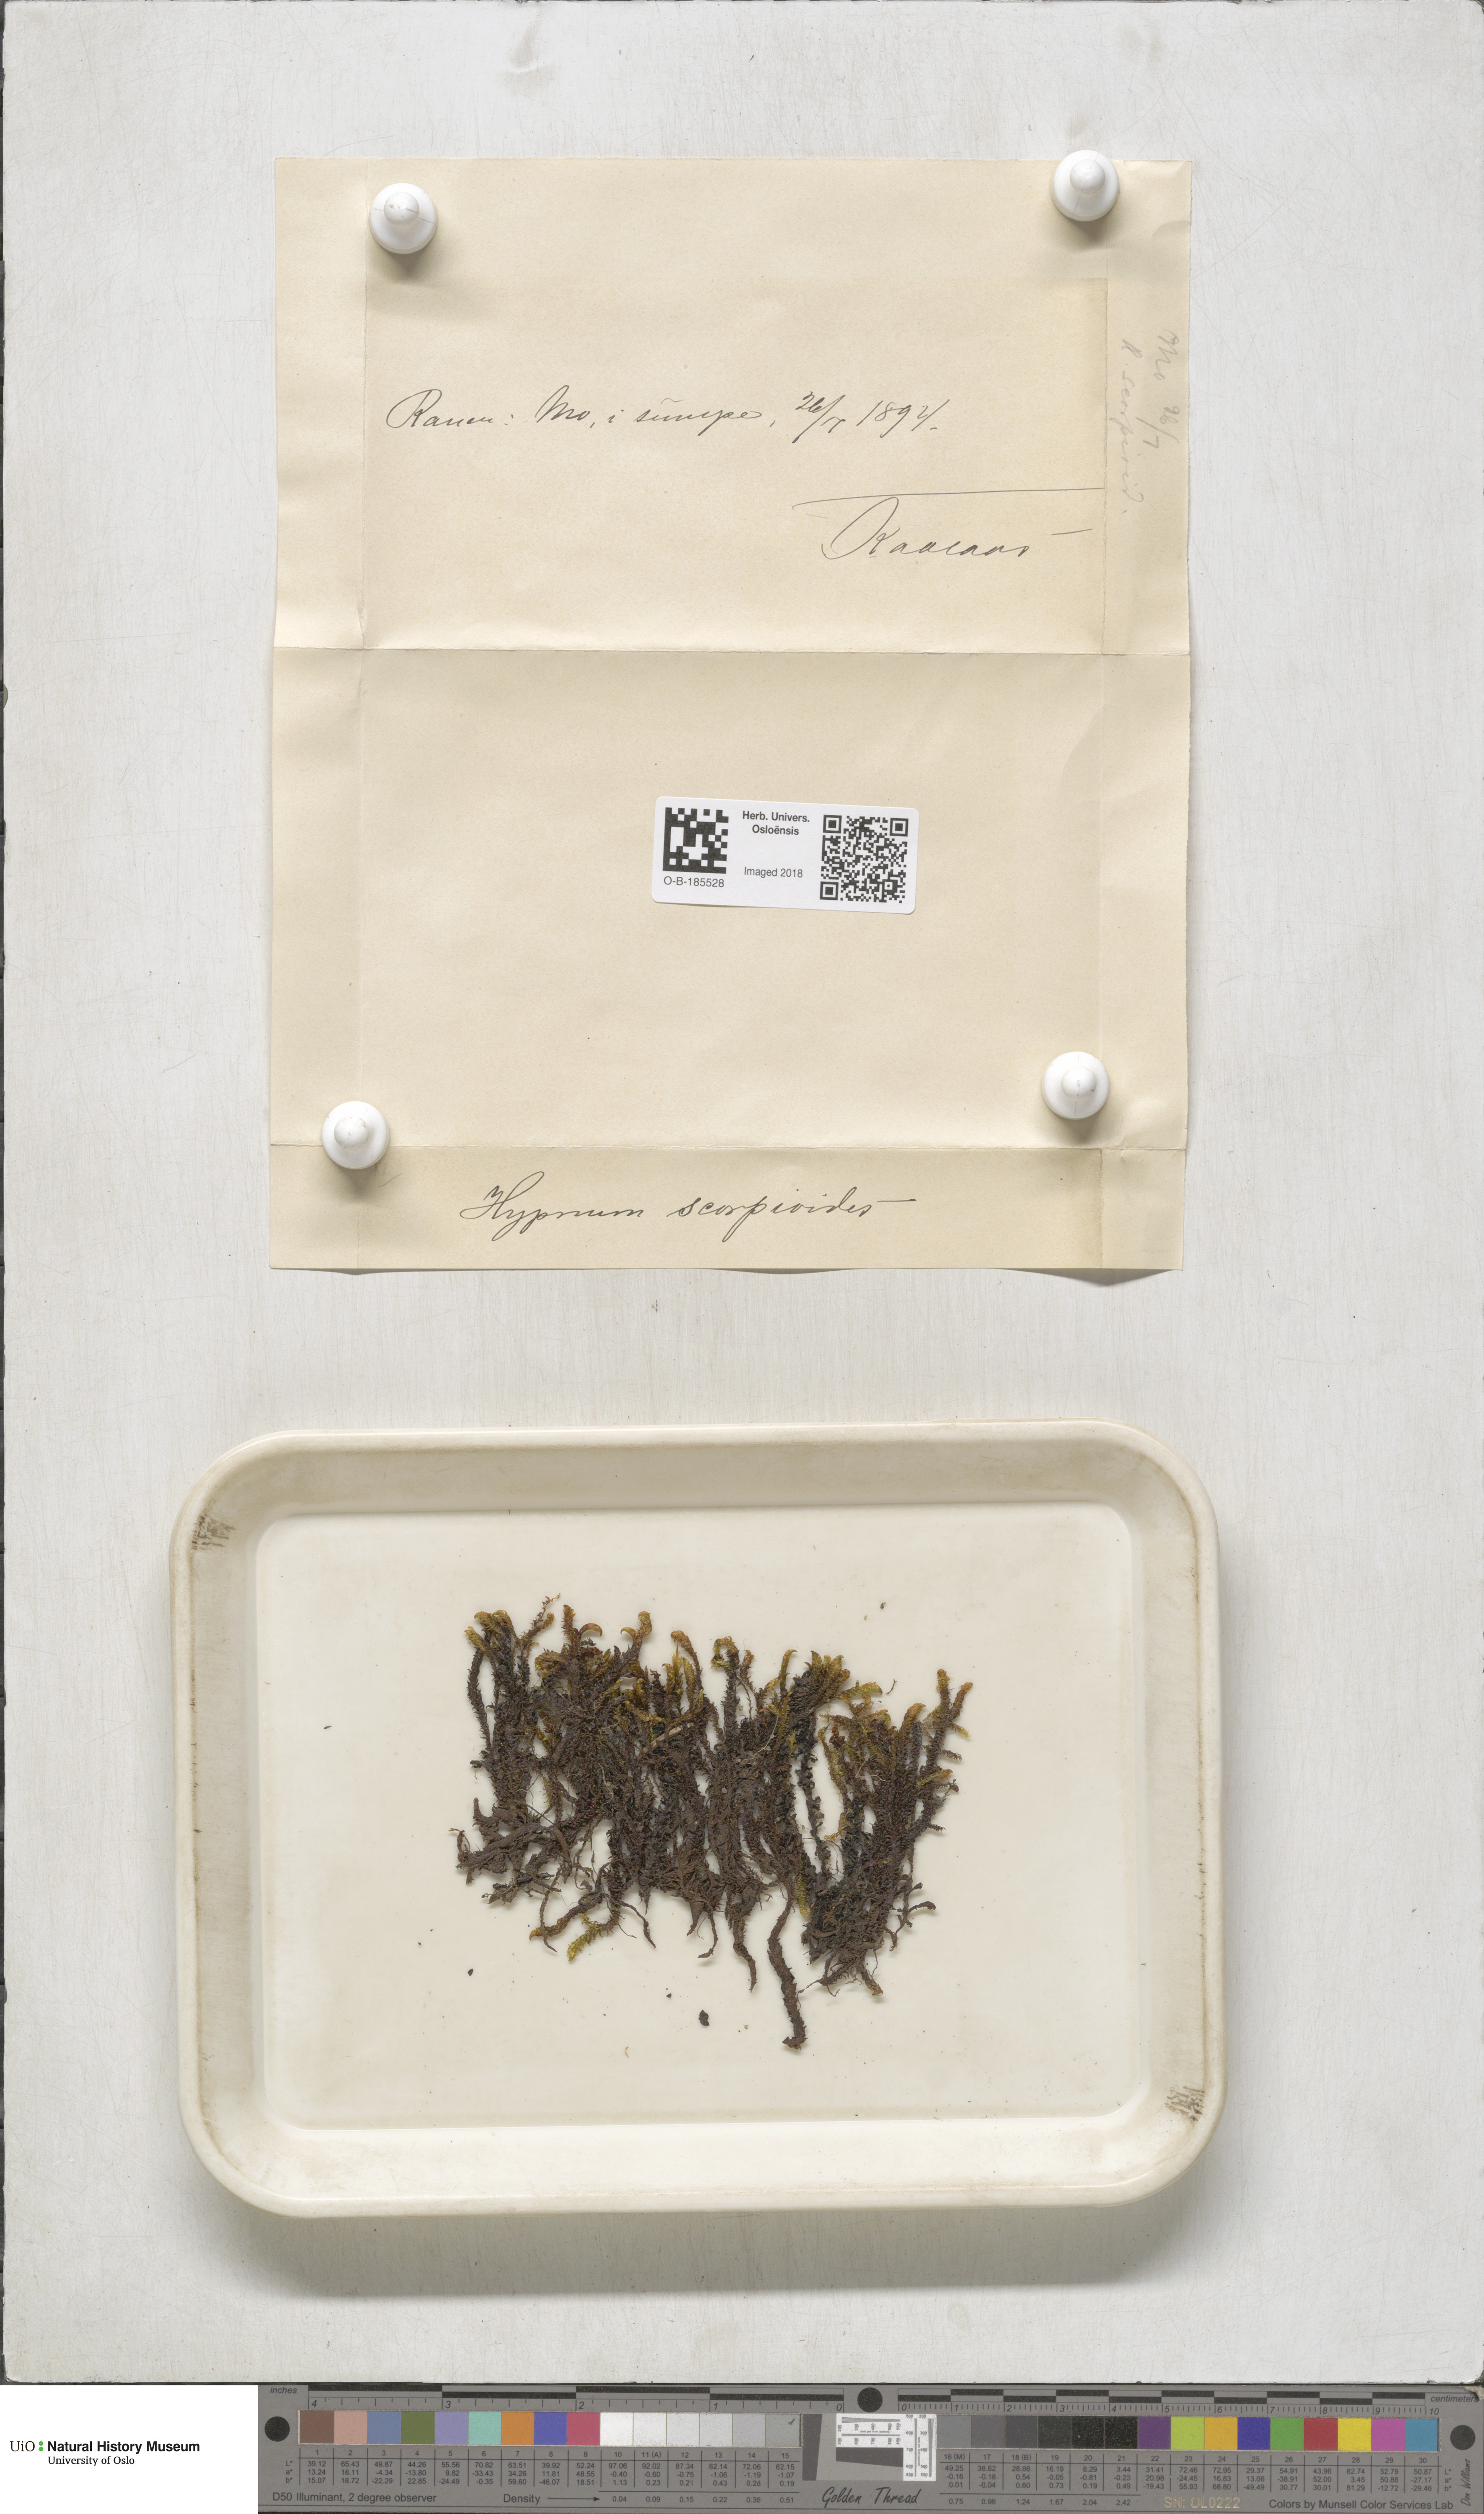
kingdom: Plantae
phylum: Bryophyta
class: Bryopsida
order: Hypnales
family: Scorpidiaceae
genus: Scorpidium
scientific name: Scorpidium scorpioides
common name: Hooked scorpion moss
